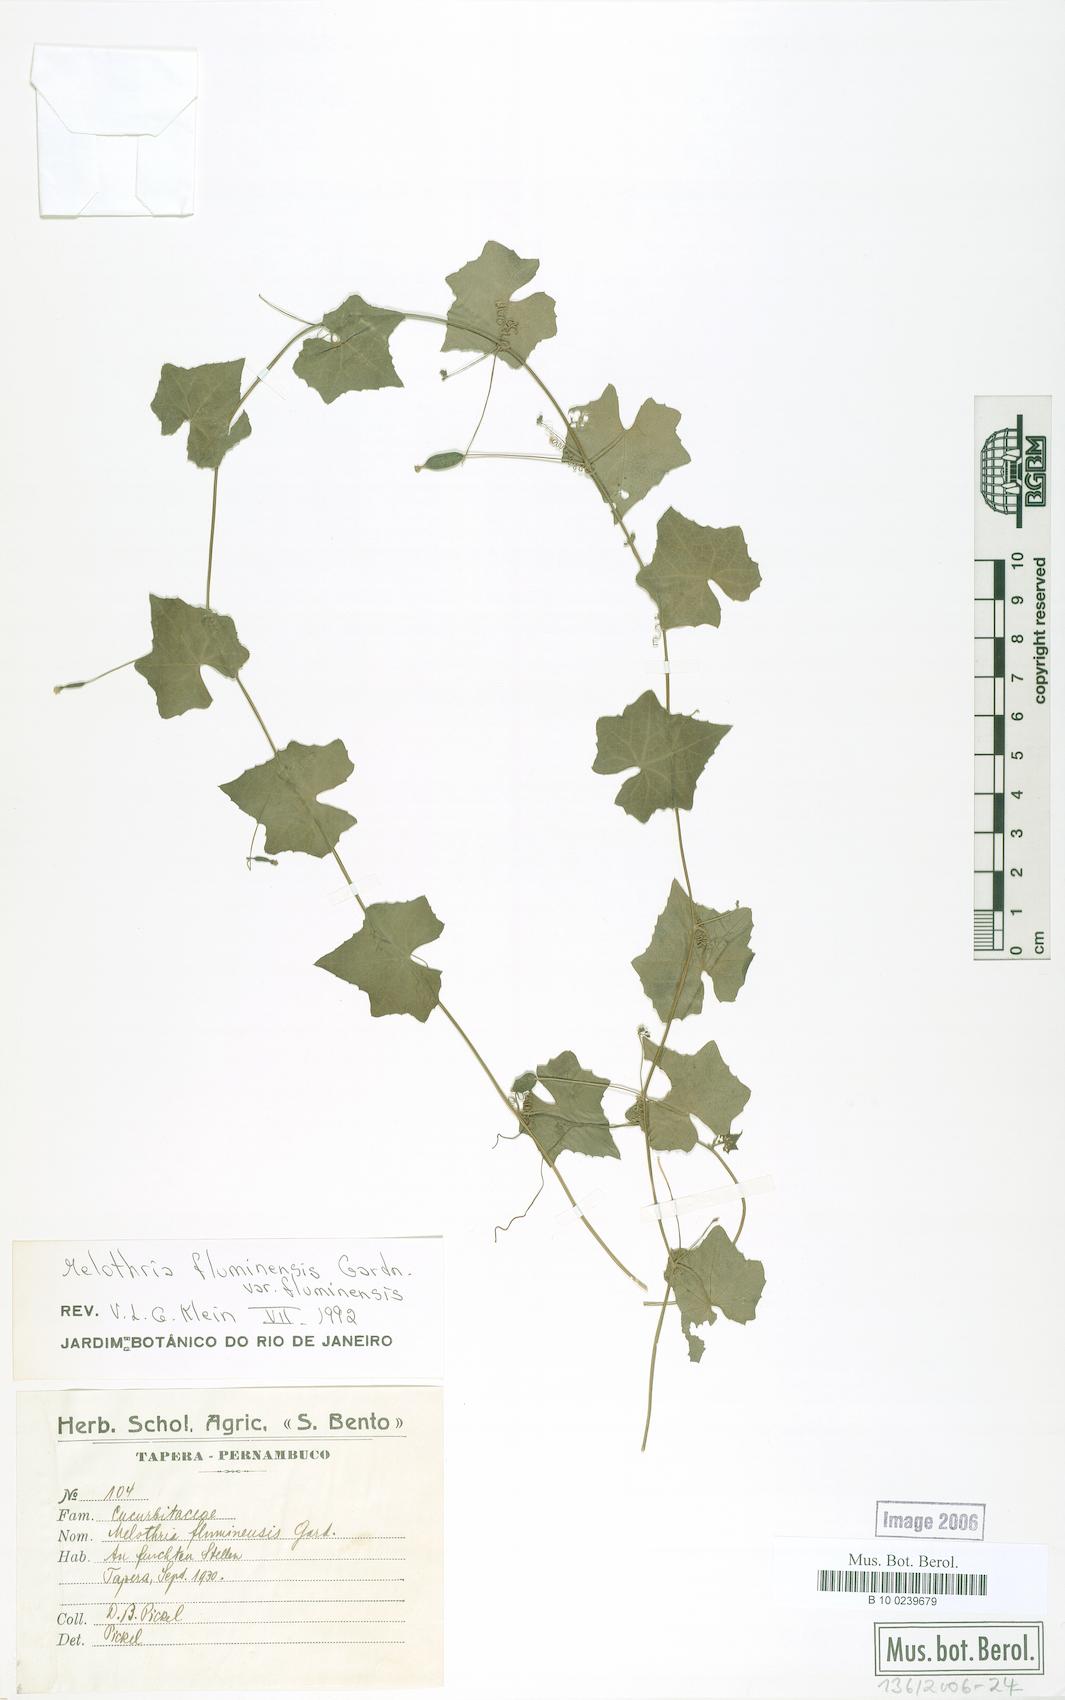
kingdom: Plantae
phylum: Tracheophyta
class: Magnoliopsida
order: Cucurbitales
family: Cucurbitaceae
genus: Melothria
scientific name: Melothria fluminensis
